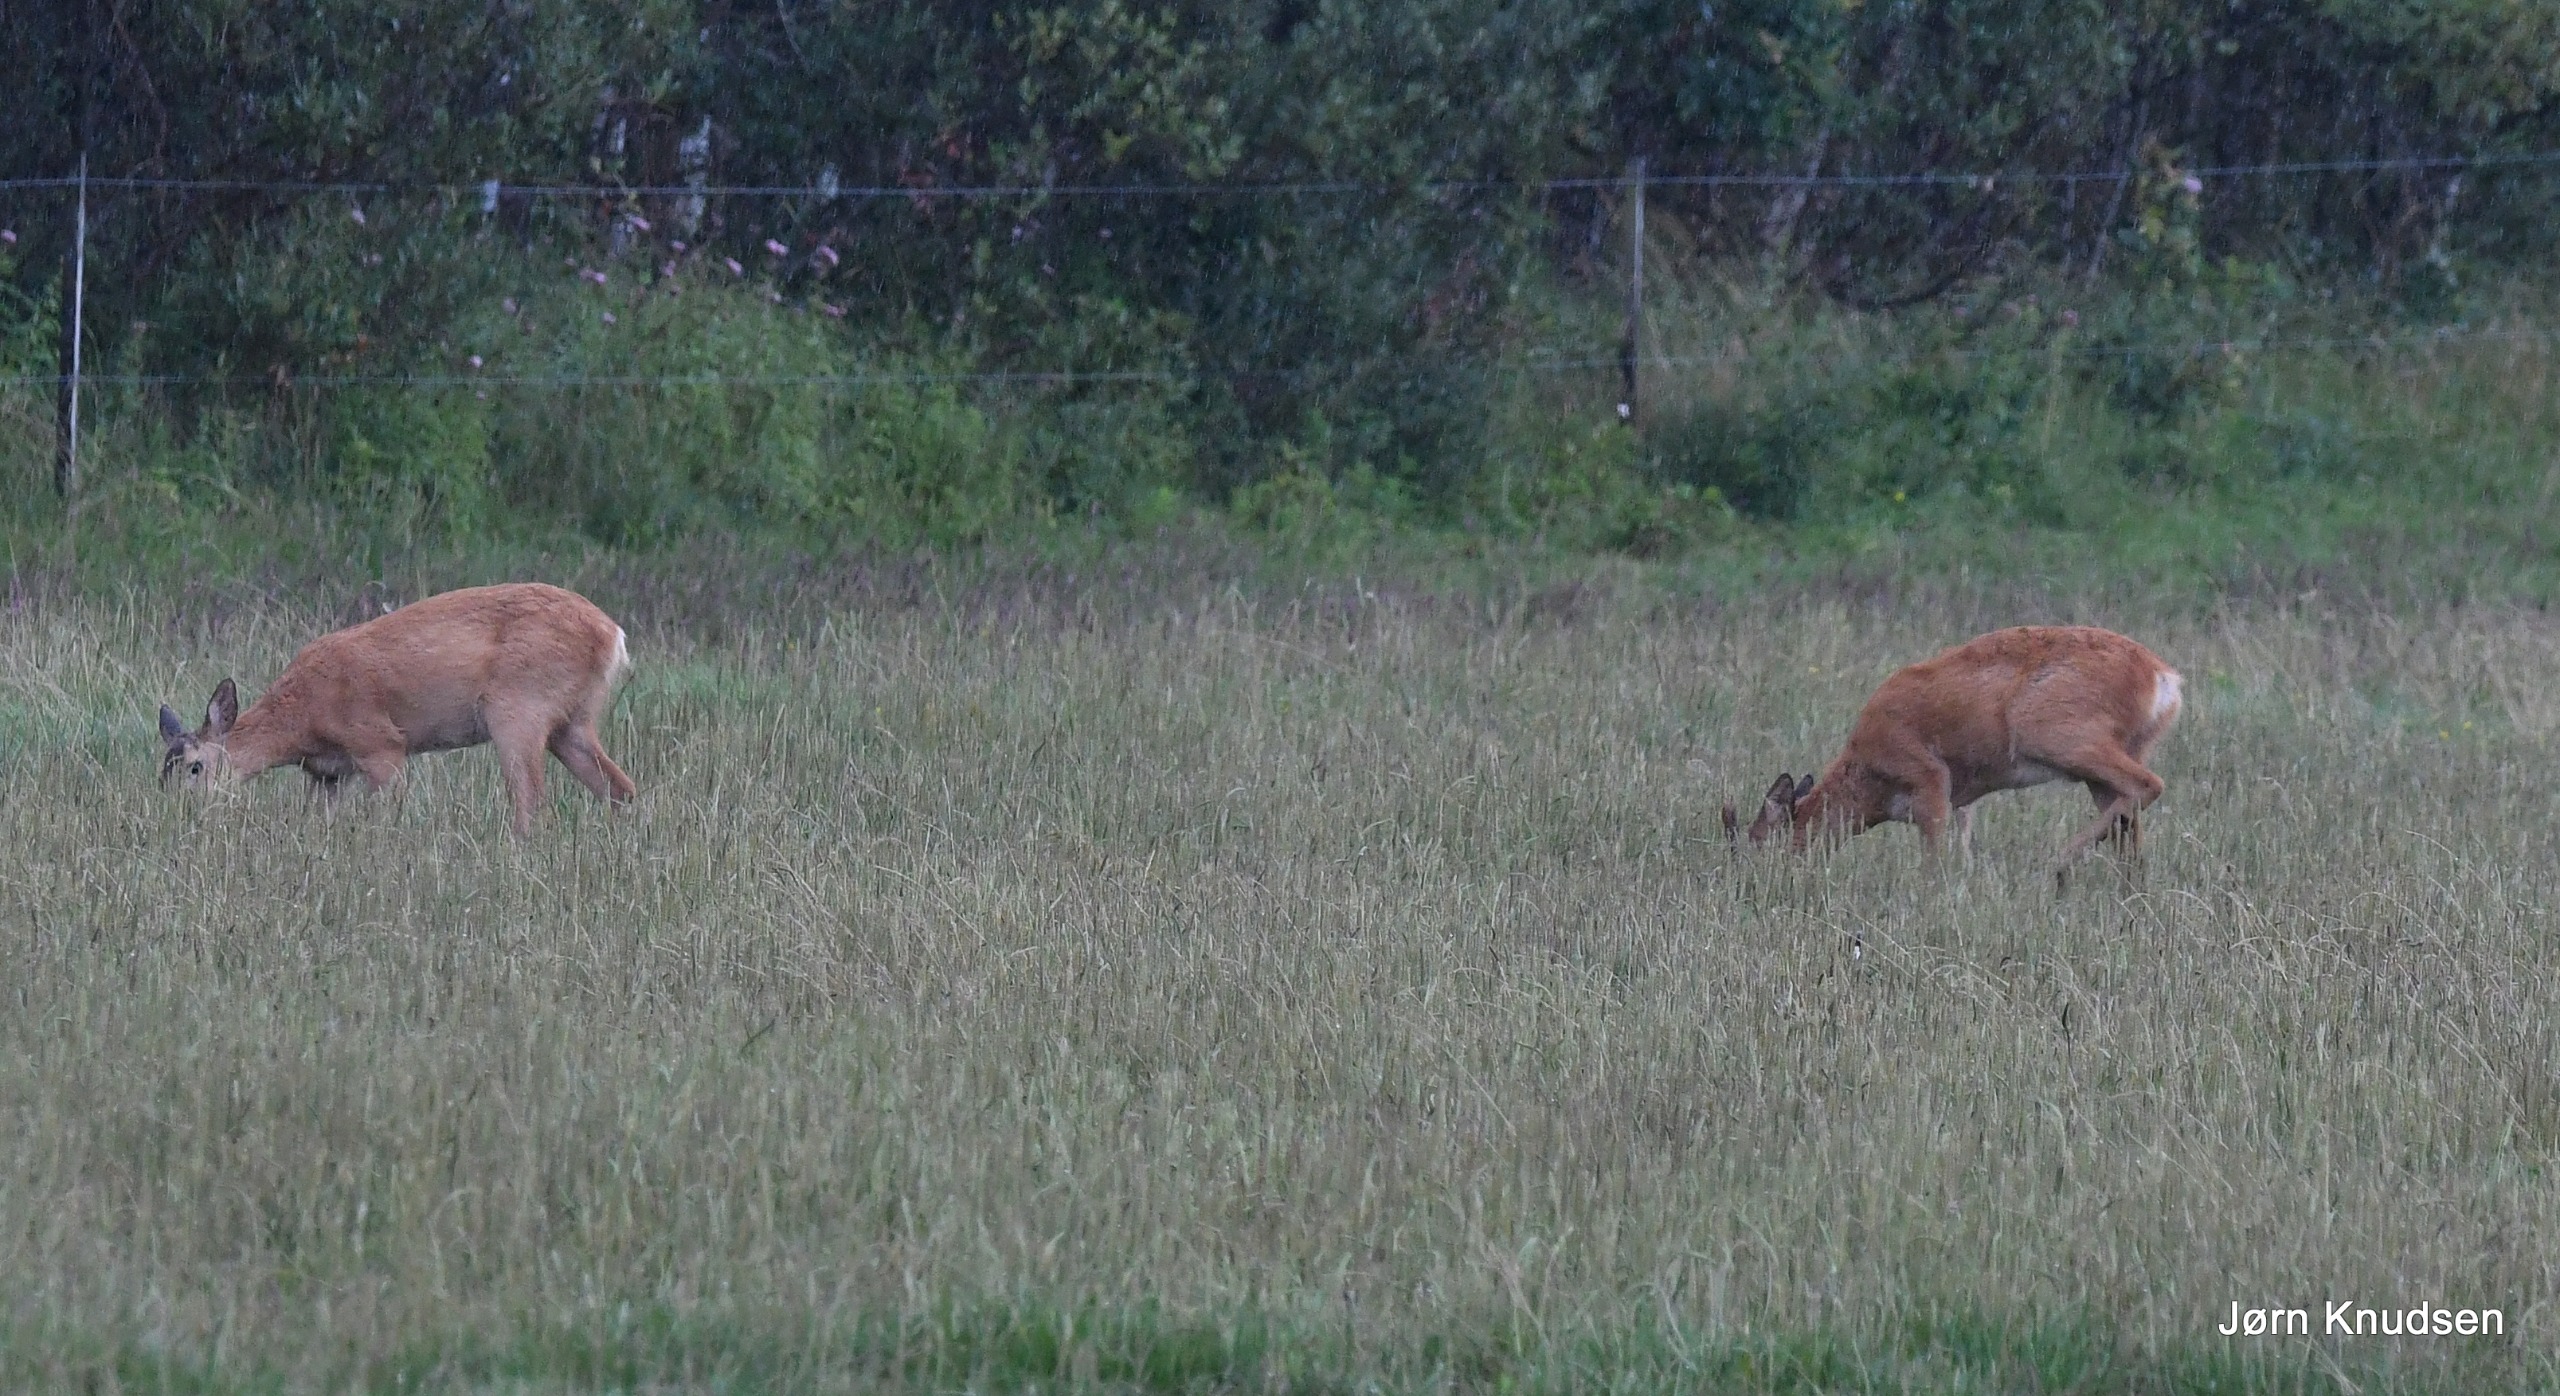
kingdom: Animalia
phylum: Chordata
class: Mammalia
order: Artiodactyla
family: Cervidae
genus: Capreolus
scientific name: Capreolus capreolus
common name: Rådyr
